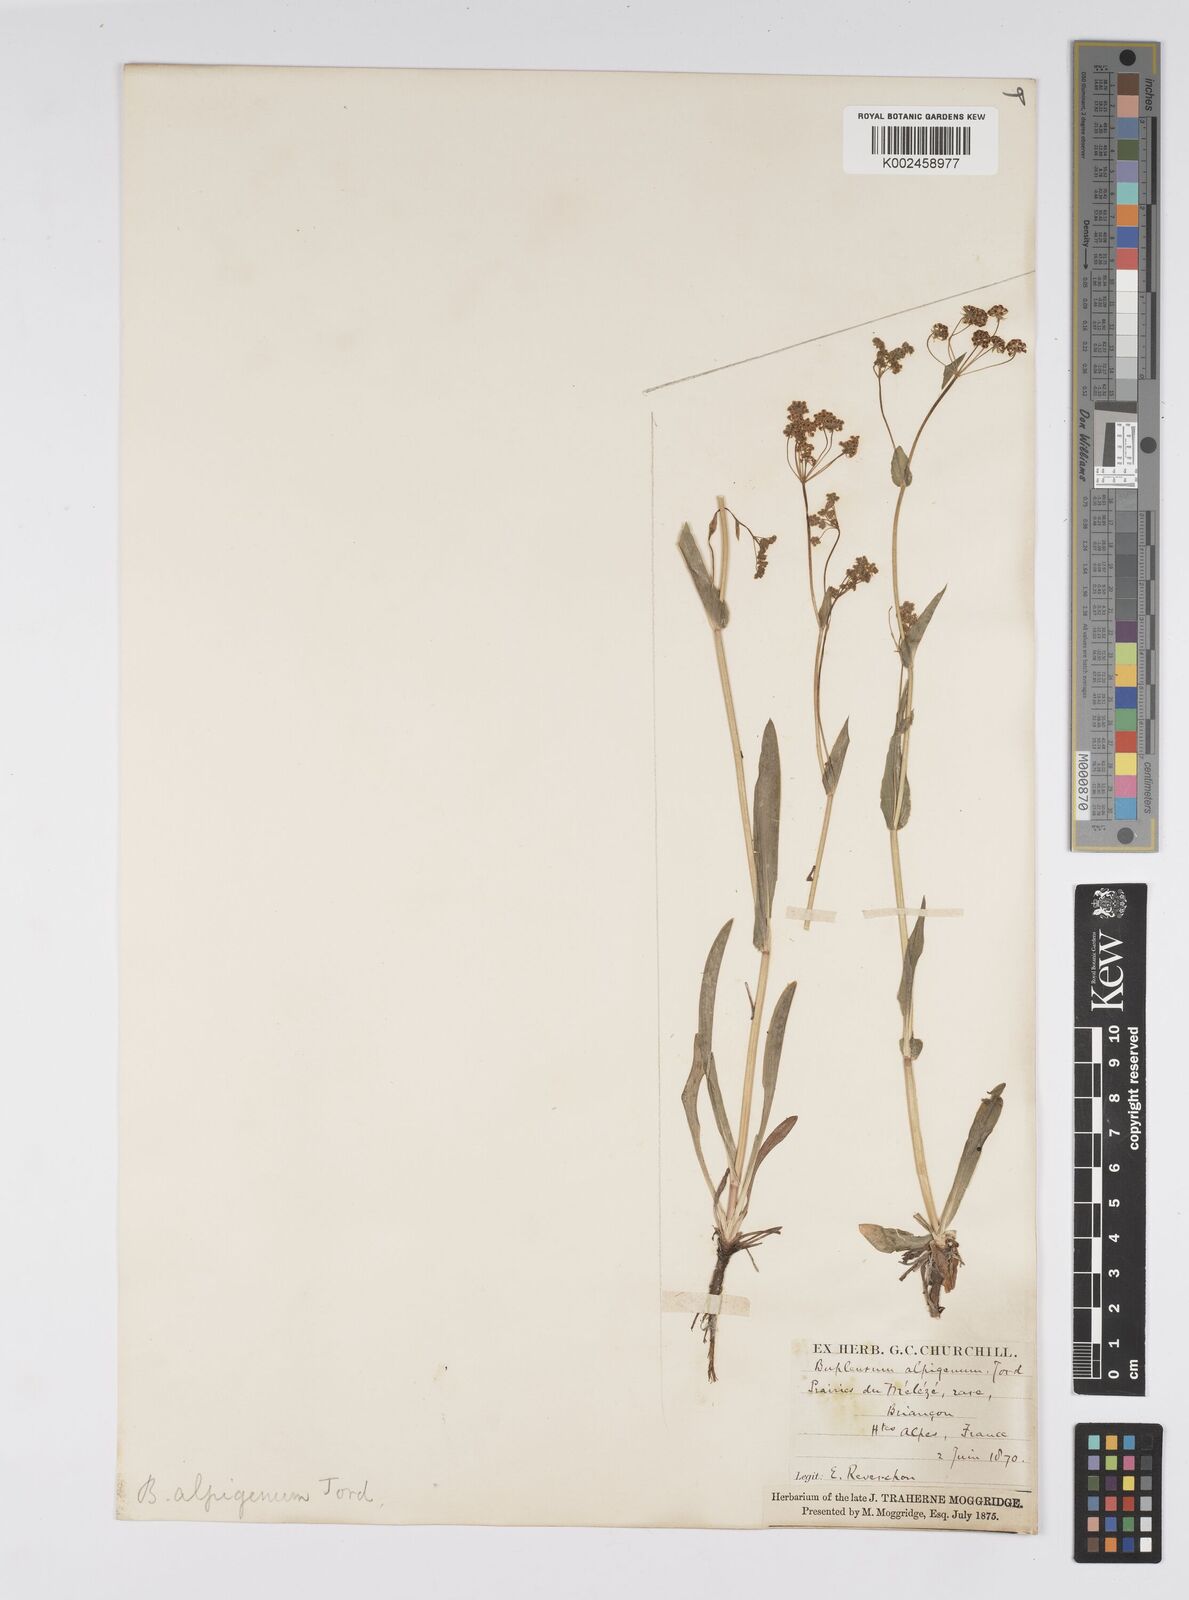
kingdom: Plantae
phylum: Tracheophyta
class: Magnoliopsida
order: Apiales
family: Apiaceae
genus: Bupleurum
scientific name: Bupleurum falcatum
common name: Sickle-leaved hare's-ear
